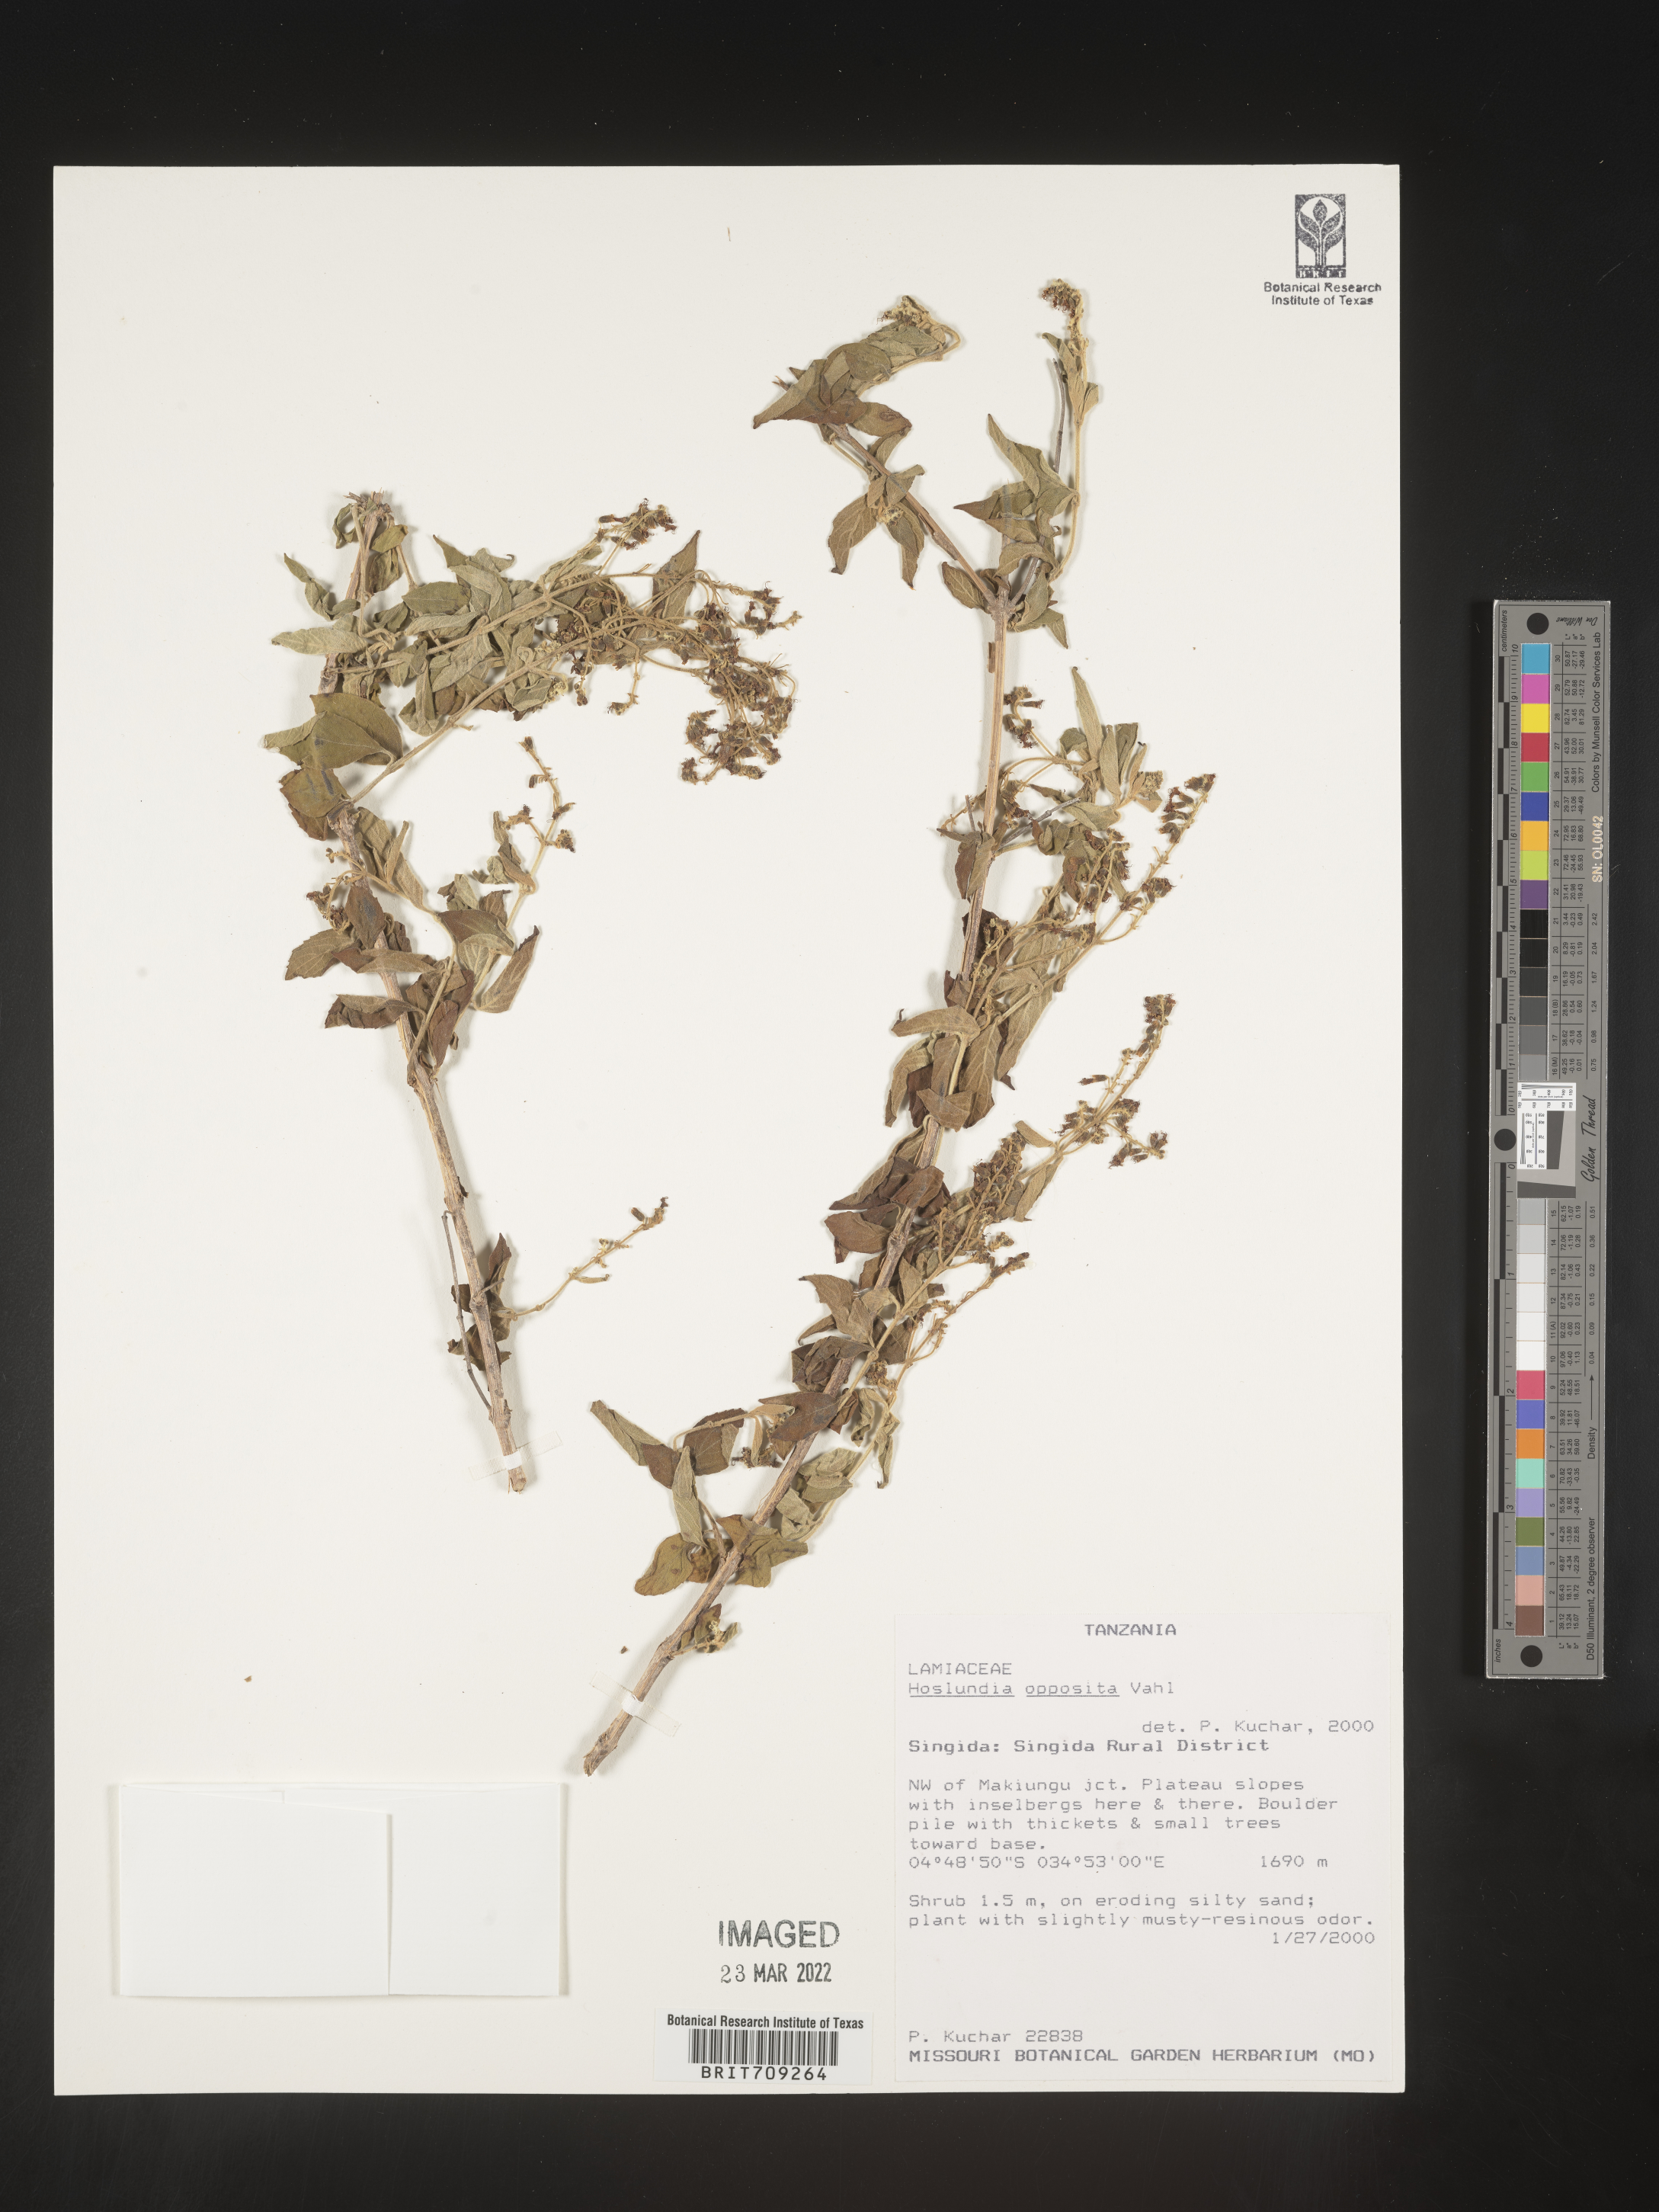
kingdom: Plantae
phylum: Tracheophyta
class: Magnoliopsida
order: Lamiales
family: Lamiaceae
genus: Hoslundia
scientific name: Hoslundia opposita
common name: Kamyuye
